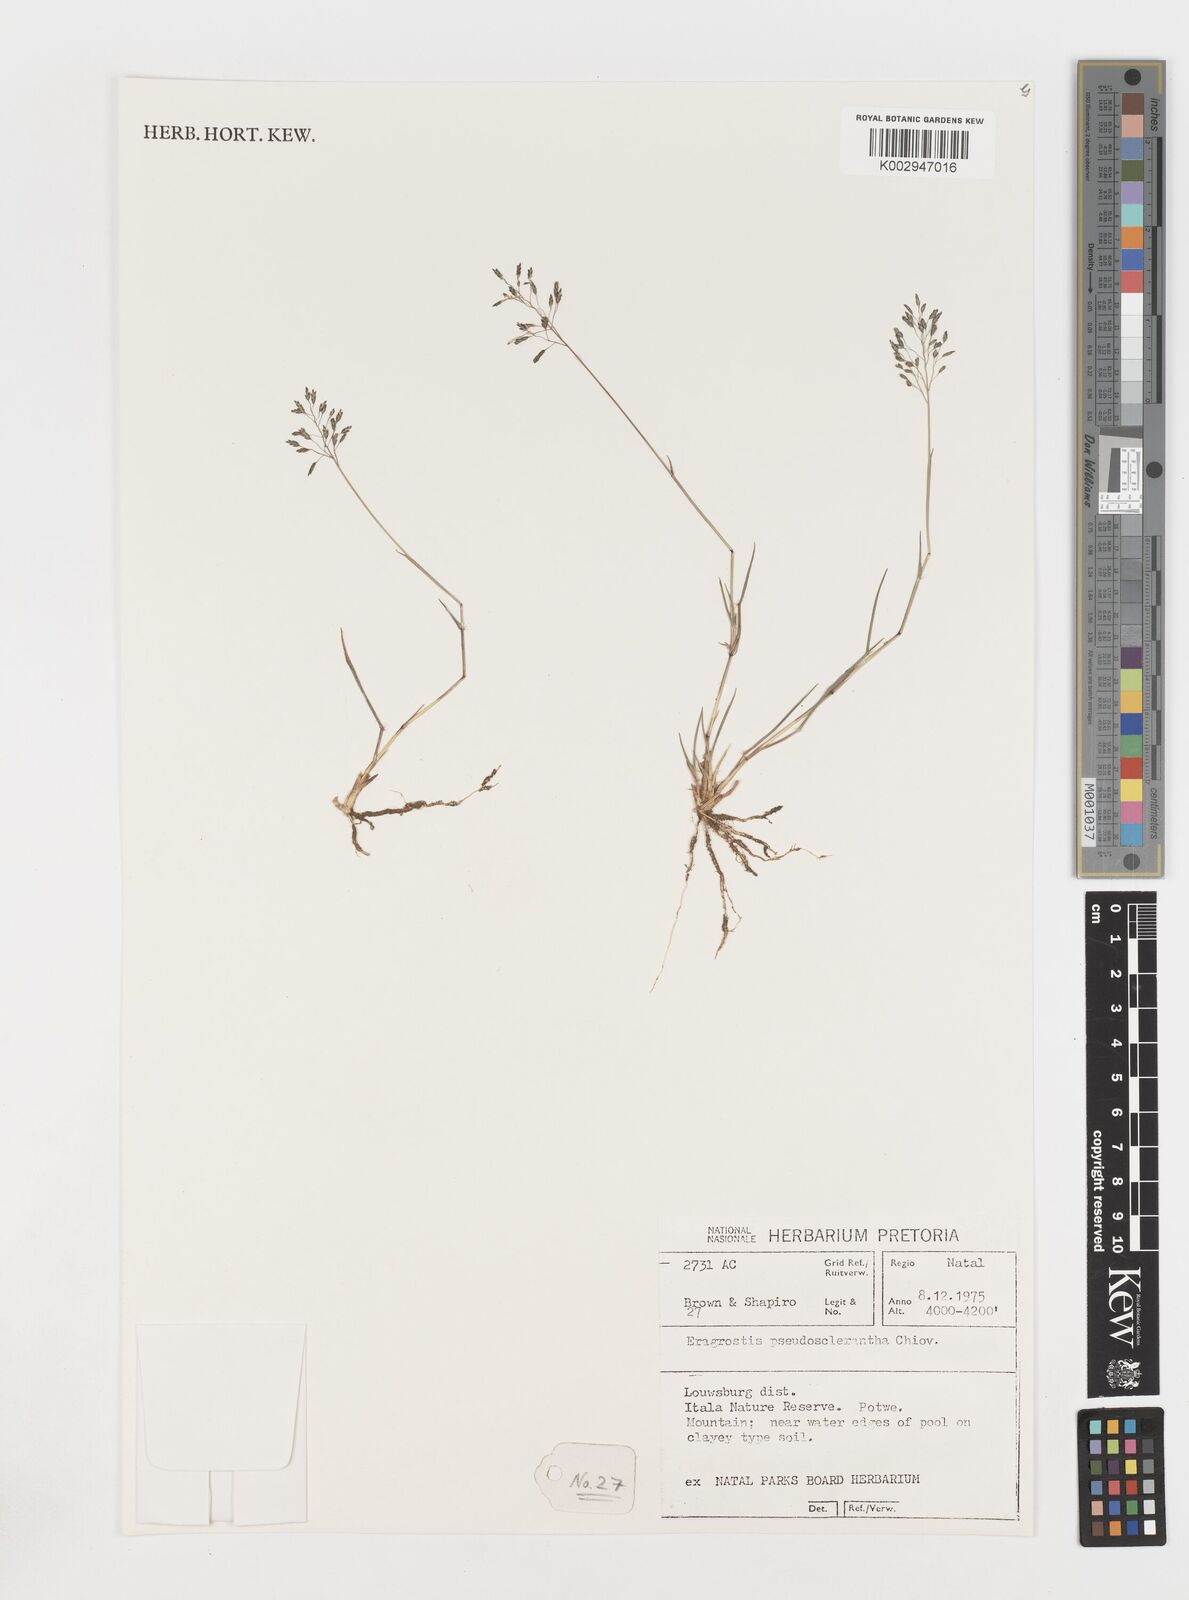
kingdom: Plantae
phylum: Tracheophyta
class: Liliopsida
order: Poales
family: Poaceae
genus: Eragrostis
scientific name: Eragrostis patentipilosa
